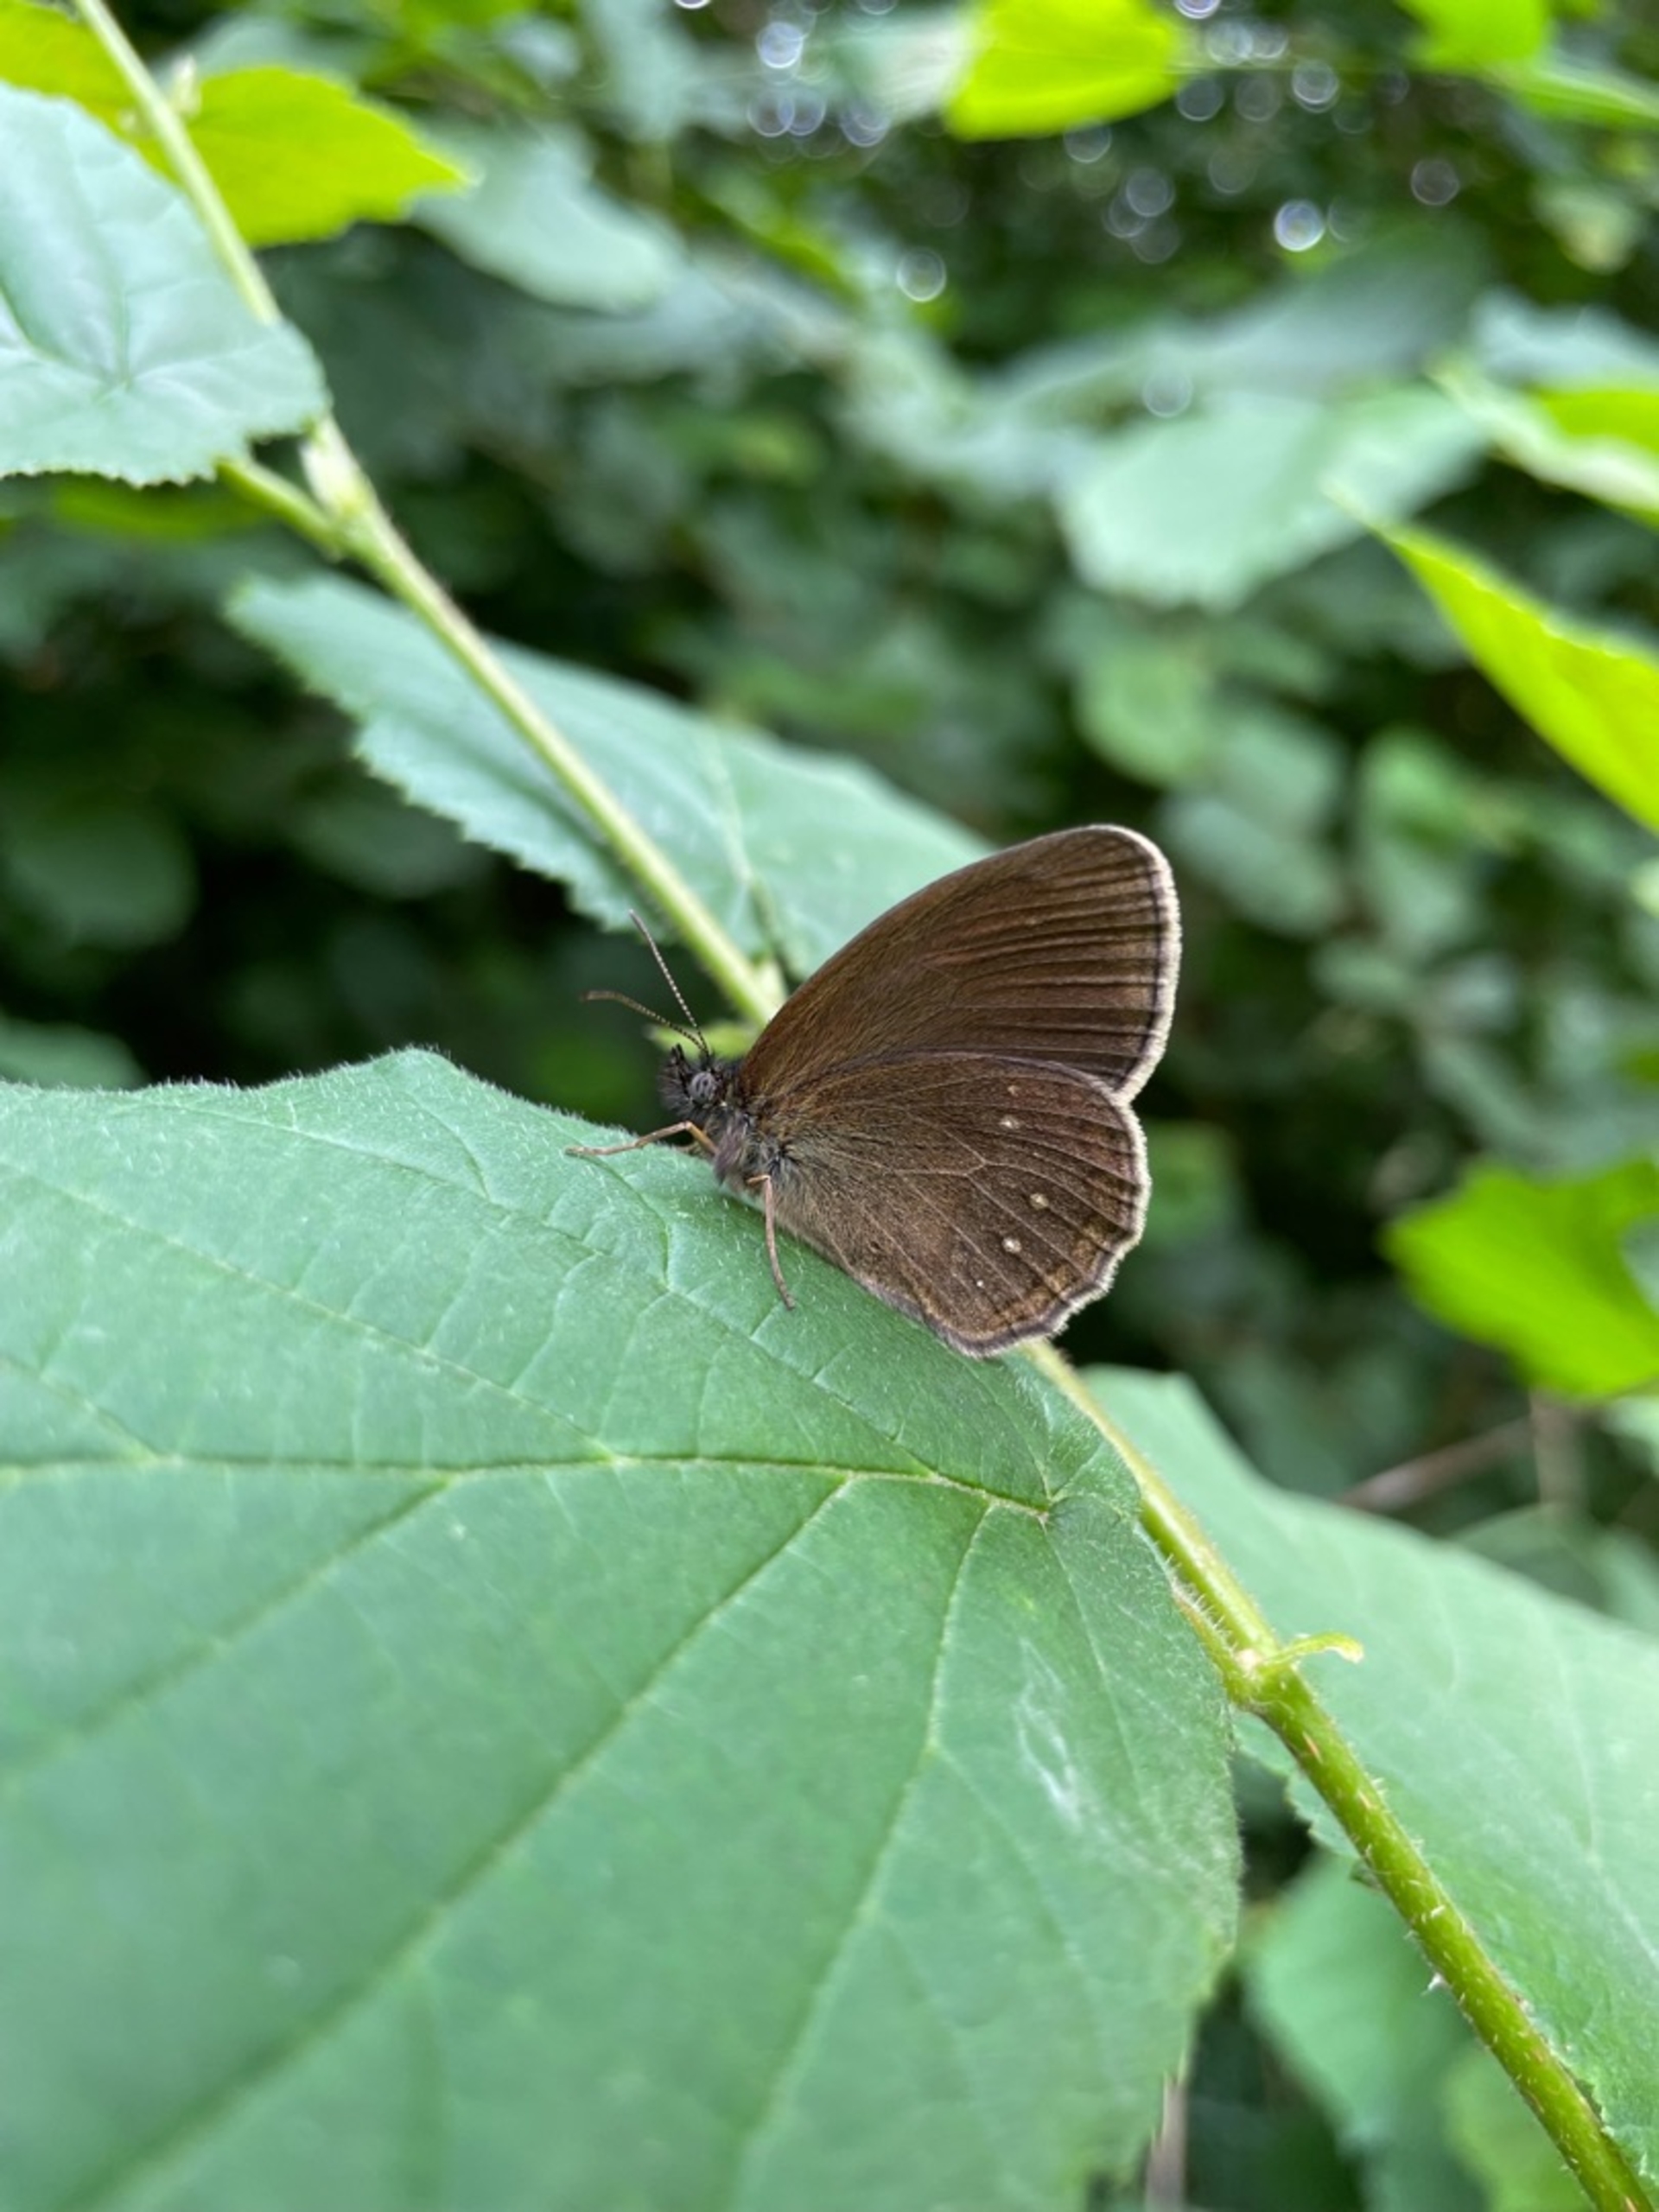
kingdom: Animalia
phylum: Arthropoda
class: Insecta
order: Lepidoptera
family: Nymphalidae
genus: Aphantopus
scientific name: Aphantopus hyperantus
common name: Engrandøje
